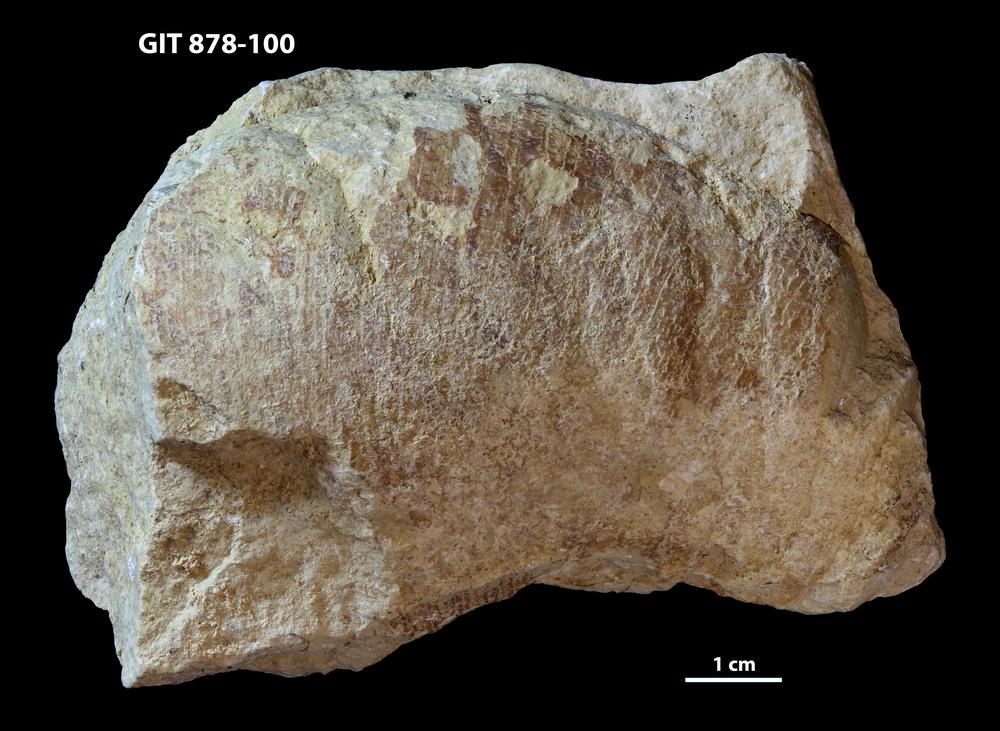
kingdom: Animalia
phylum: Mollusca
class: Cephalopoda
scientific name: Cephalopoda
